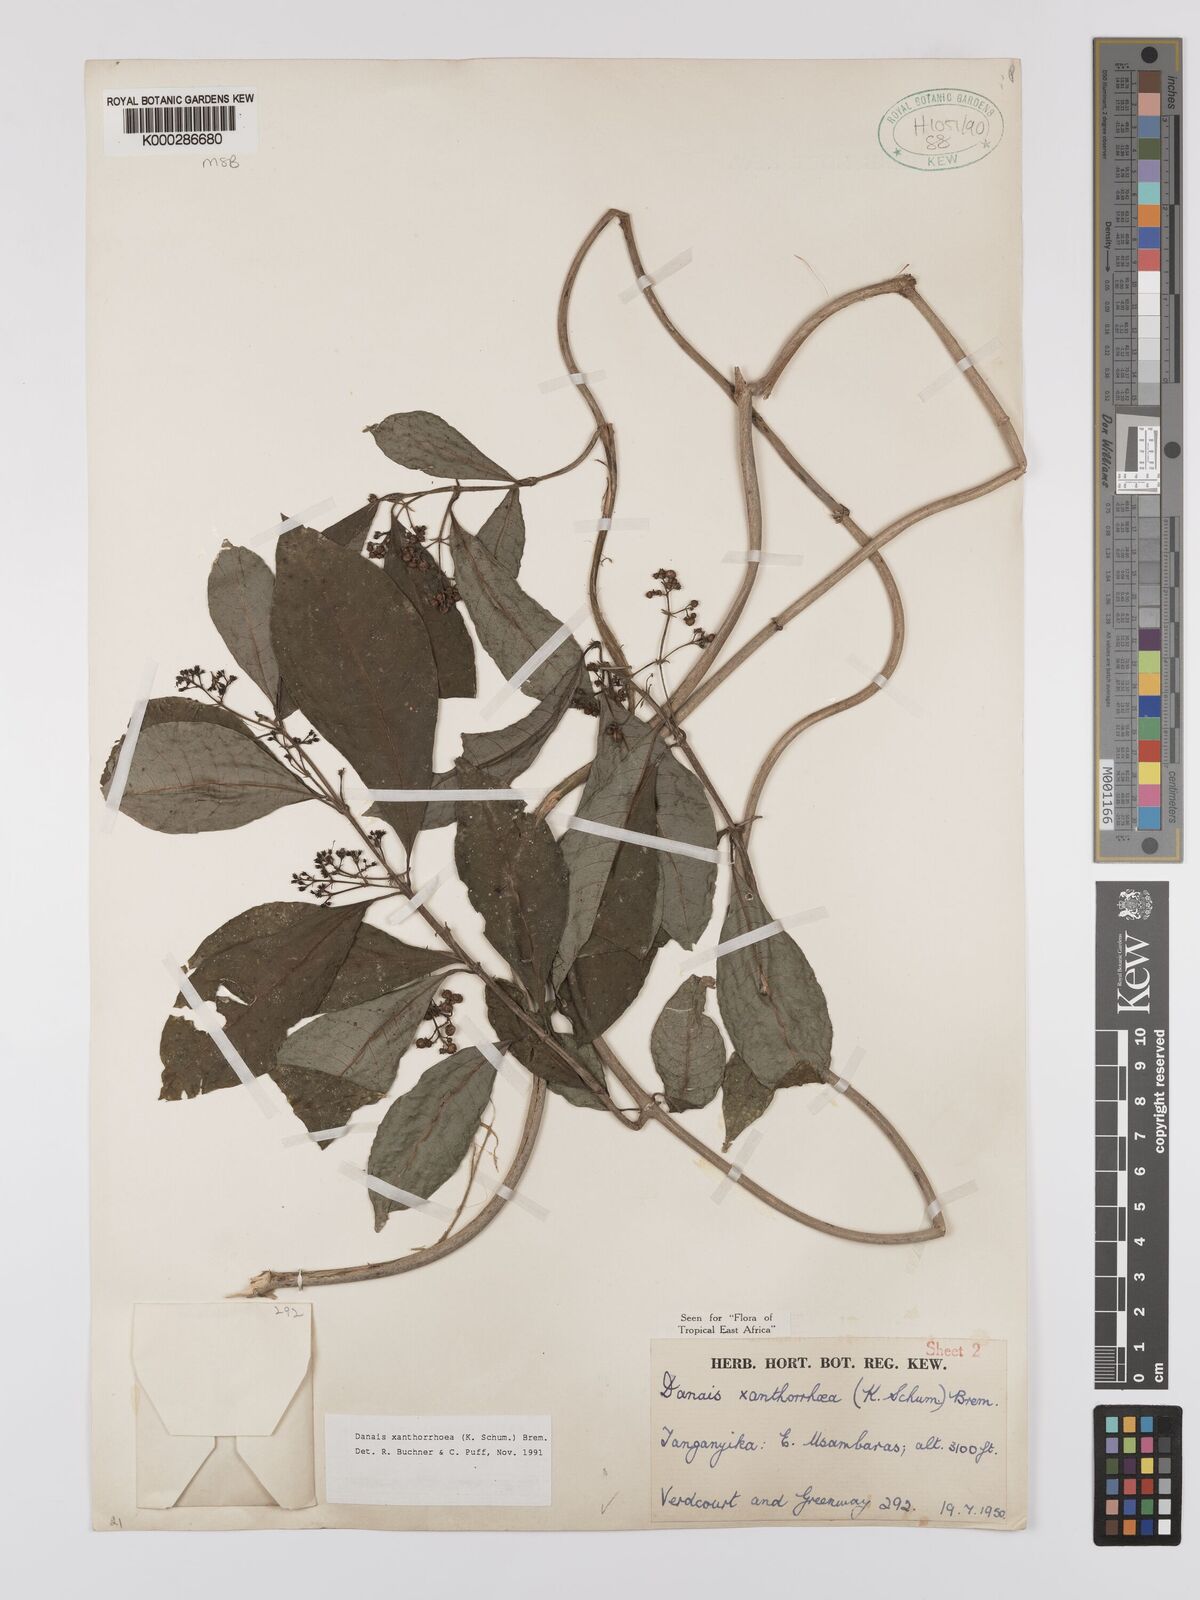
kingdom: Plantae
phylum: Tracheophyta
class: Magnoliopsida
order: Gentianales
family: Rubiaceae
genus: Danais
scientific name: Danais xanthorrhoea
